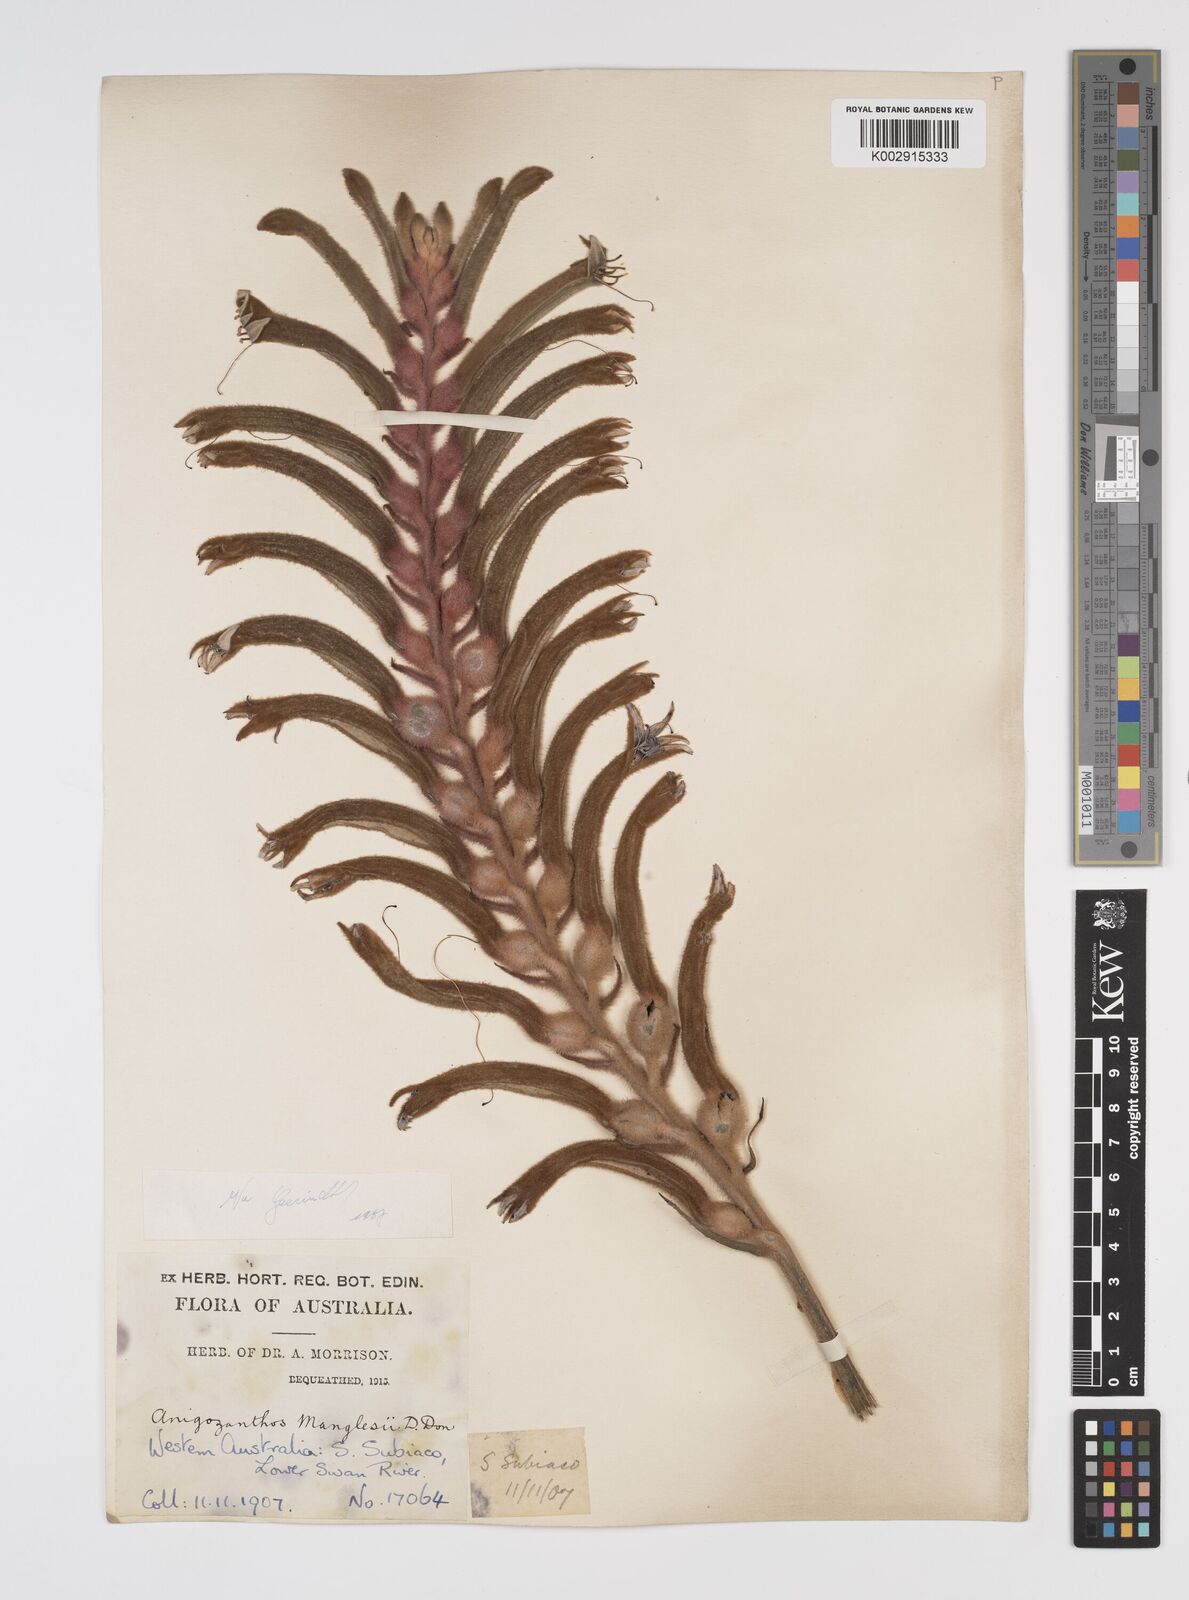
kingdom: Plantae
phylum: Tracheophyta
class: Liliopsida
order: Commelinales
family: Haemodoraceae
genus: Anigozanthos
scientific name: Anigozanthos manglesii
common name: Mangles's kangaroo-paw
